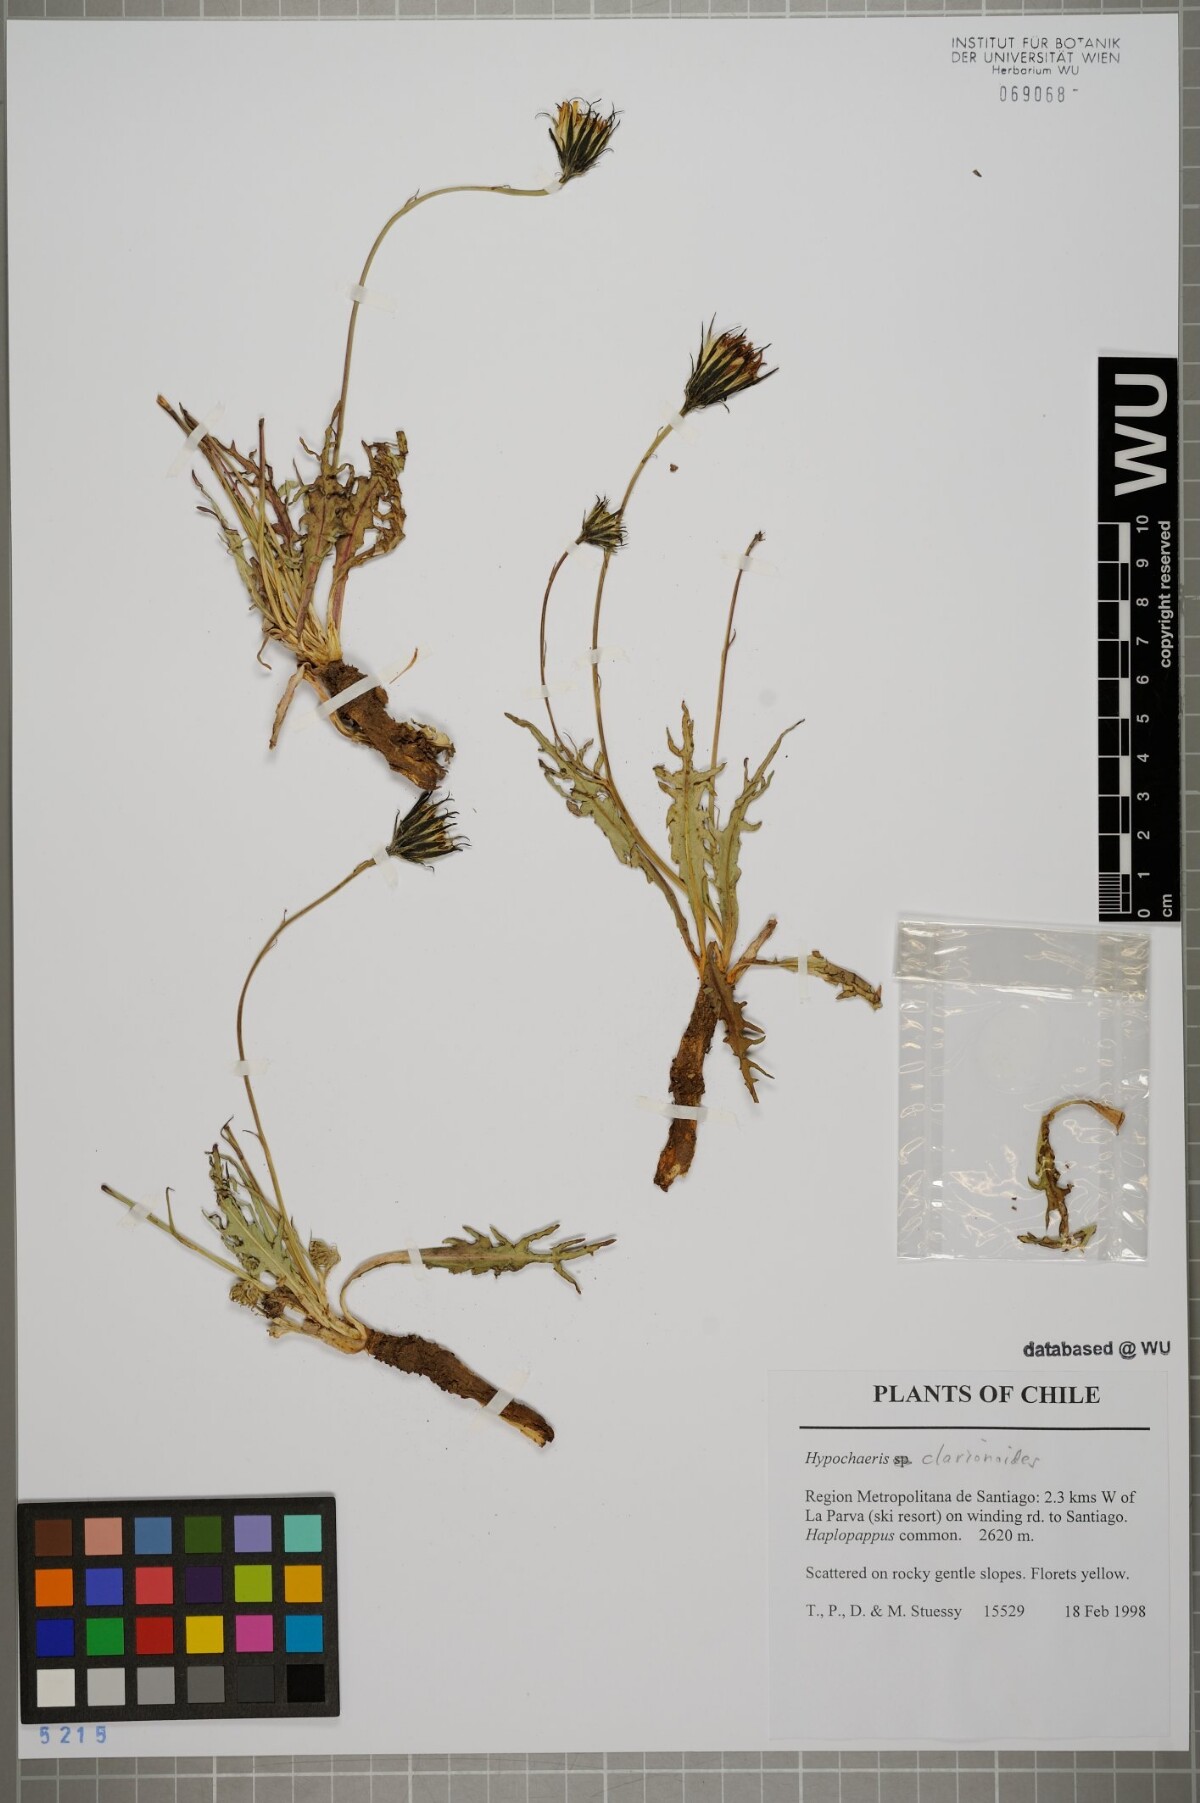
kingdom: Plantae
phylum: Tracheophyta
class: Magnoliopsida
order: Asterales
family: Asteraceae
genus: Hypochaeris
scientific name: Hypochaeris clarionoides
